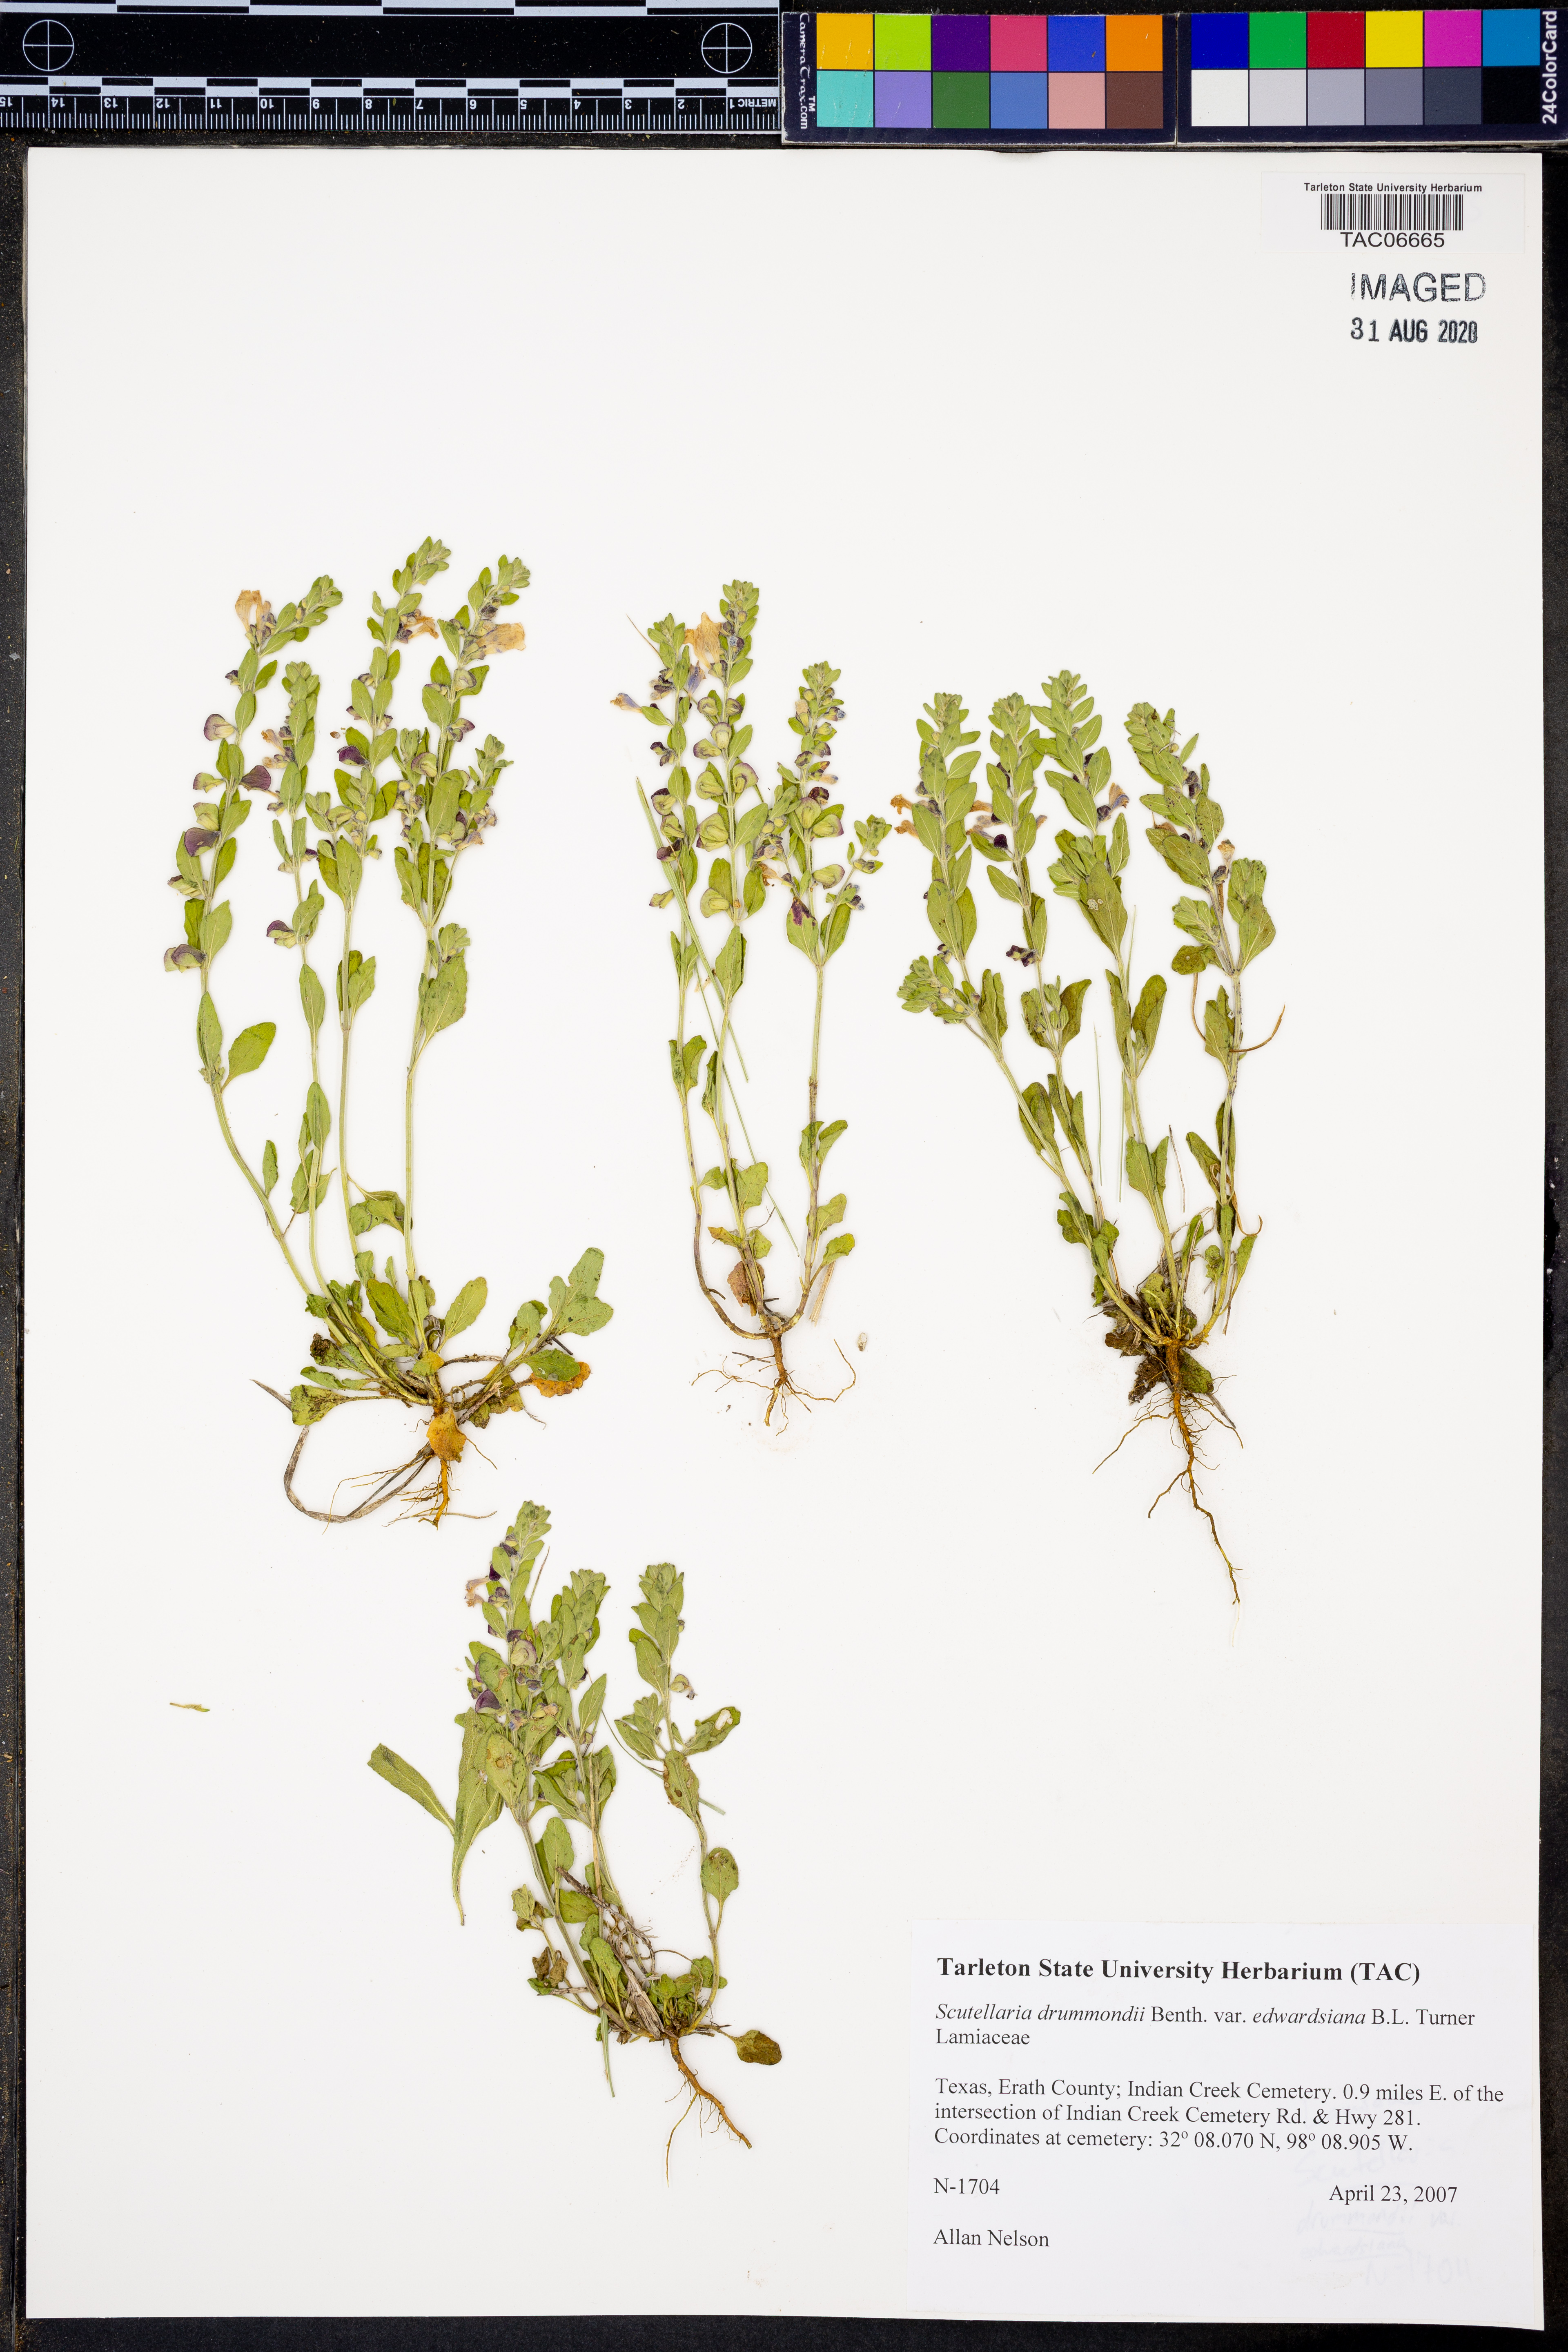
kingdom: Plantae
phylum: Tracheophyta
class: Magnoliopsida
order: Lamiales
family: Lamiaceae
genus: Scutellaria
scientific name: Scutellaria drummondii
